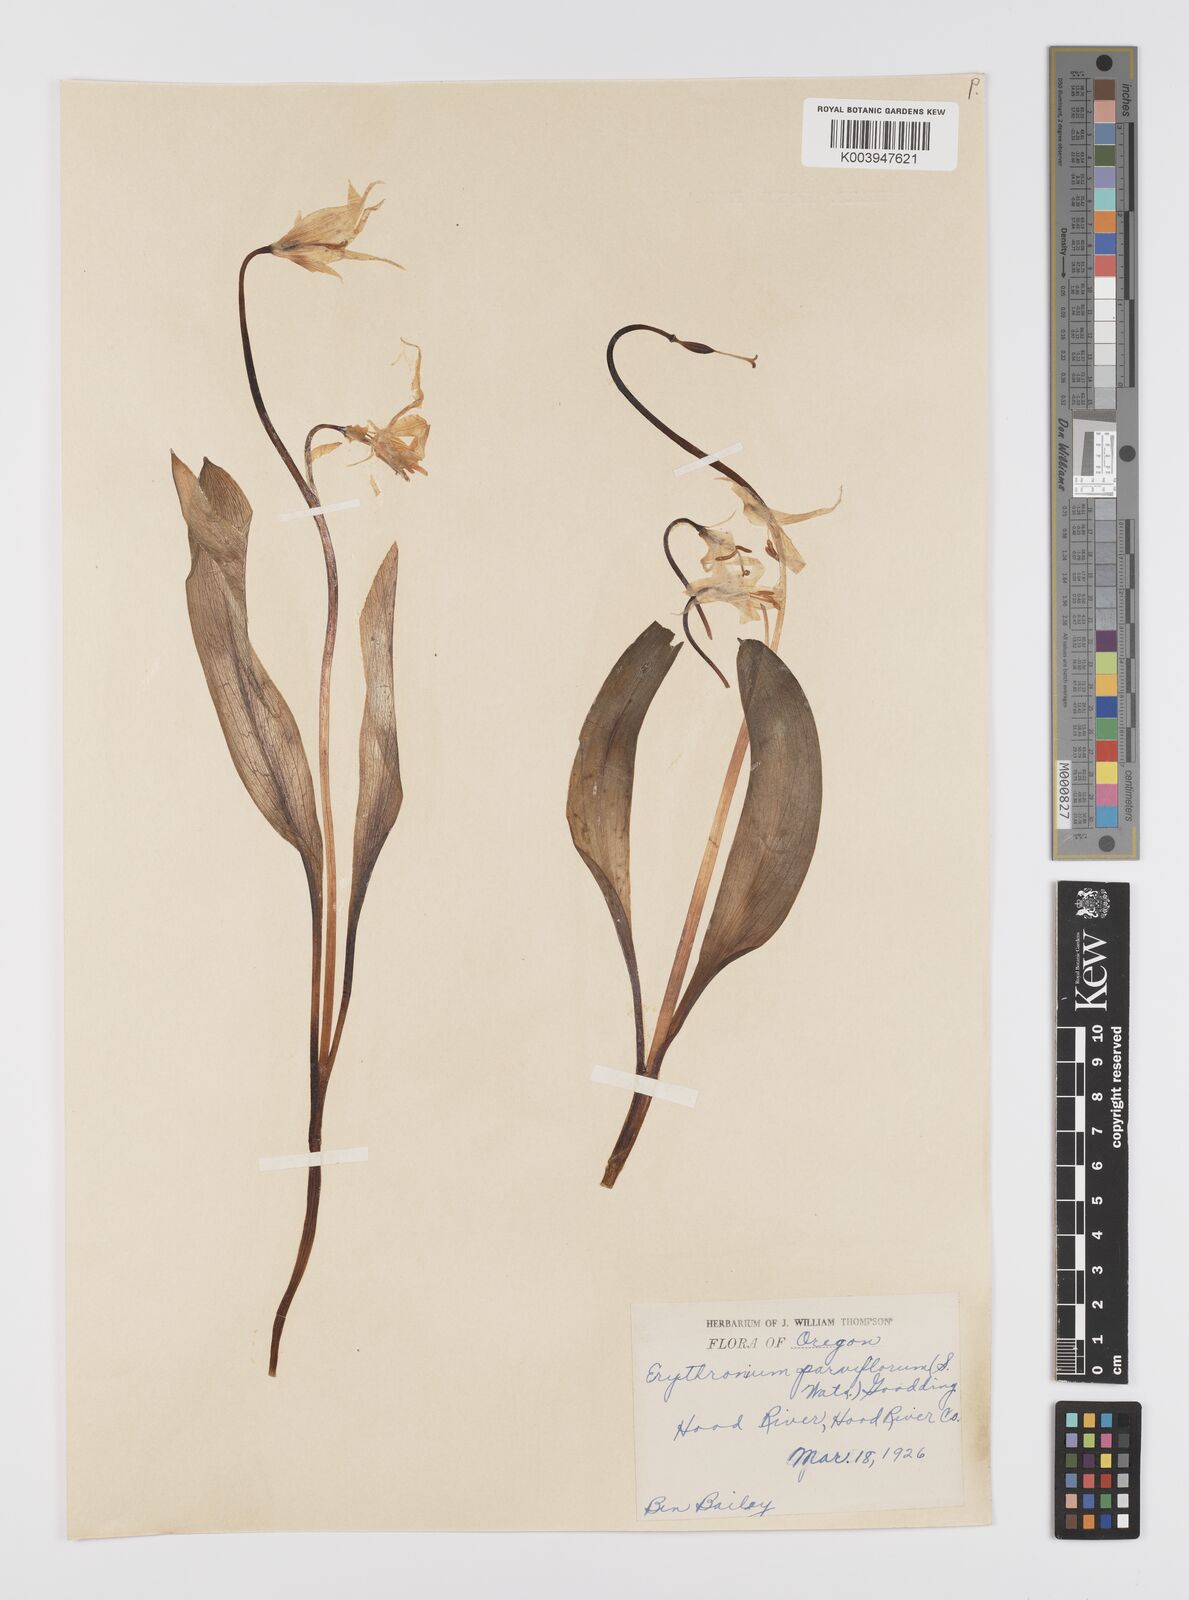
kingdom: Plantae
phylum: Tracheophyta
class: Liliopsida
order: Liliales
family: Liliaceae
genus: Erythronium
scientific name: Erythronium grandiflorum
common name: Avalanche-lily
